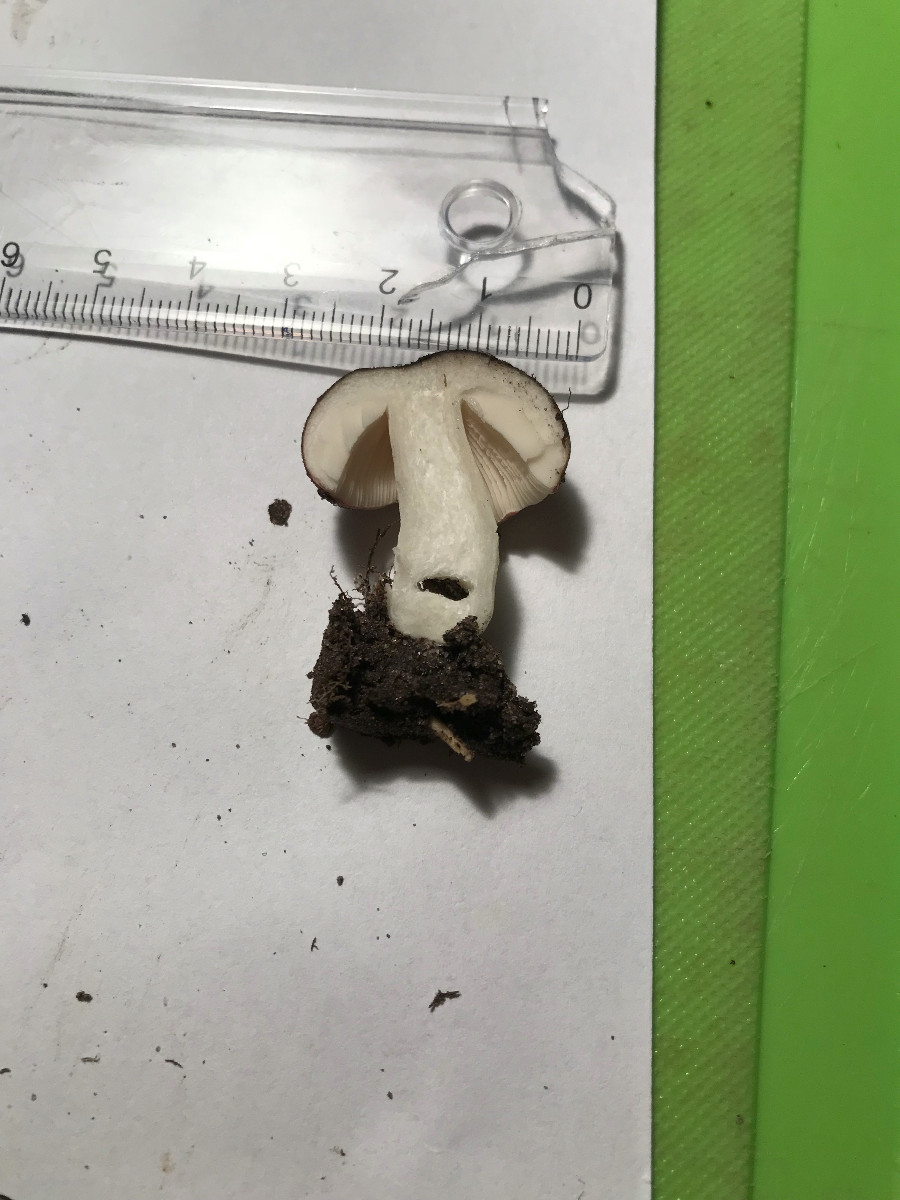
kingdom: Fungi
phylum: Basidiomycota
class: Agaricomycetes
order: Russulales
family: Russulaceae
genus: Russula
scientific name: Russula
